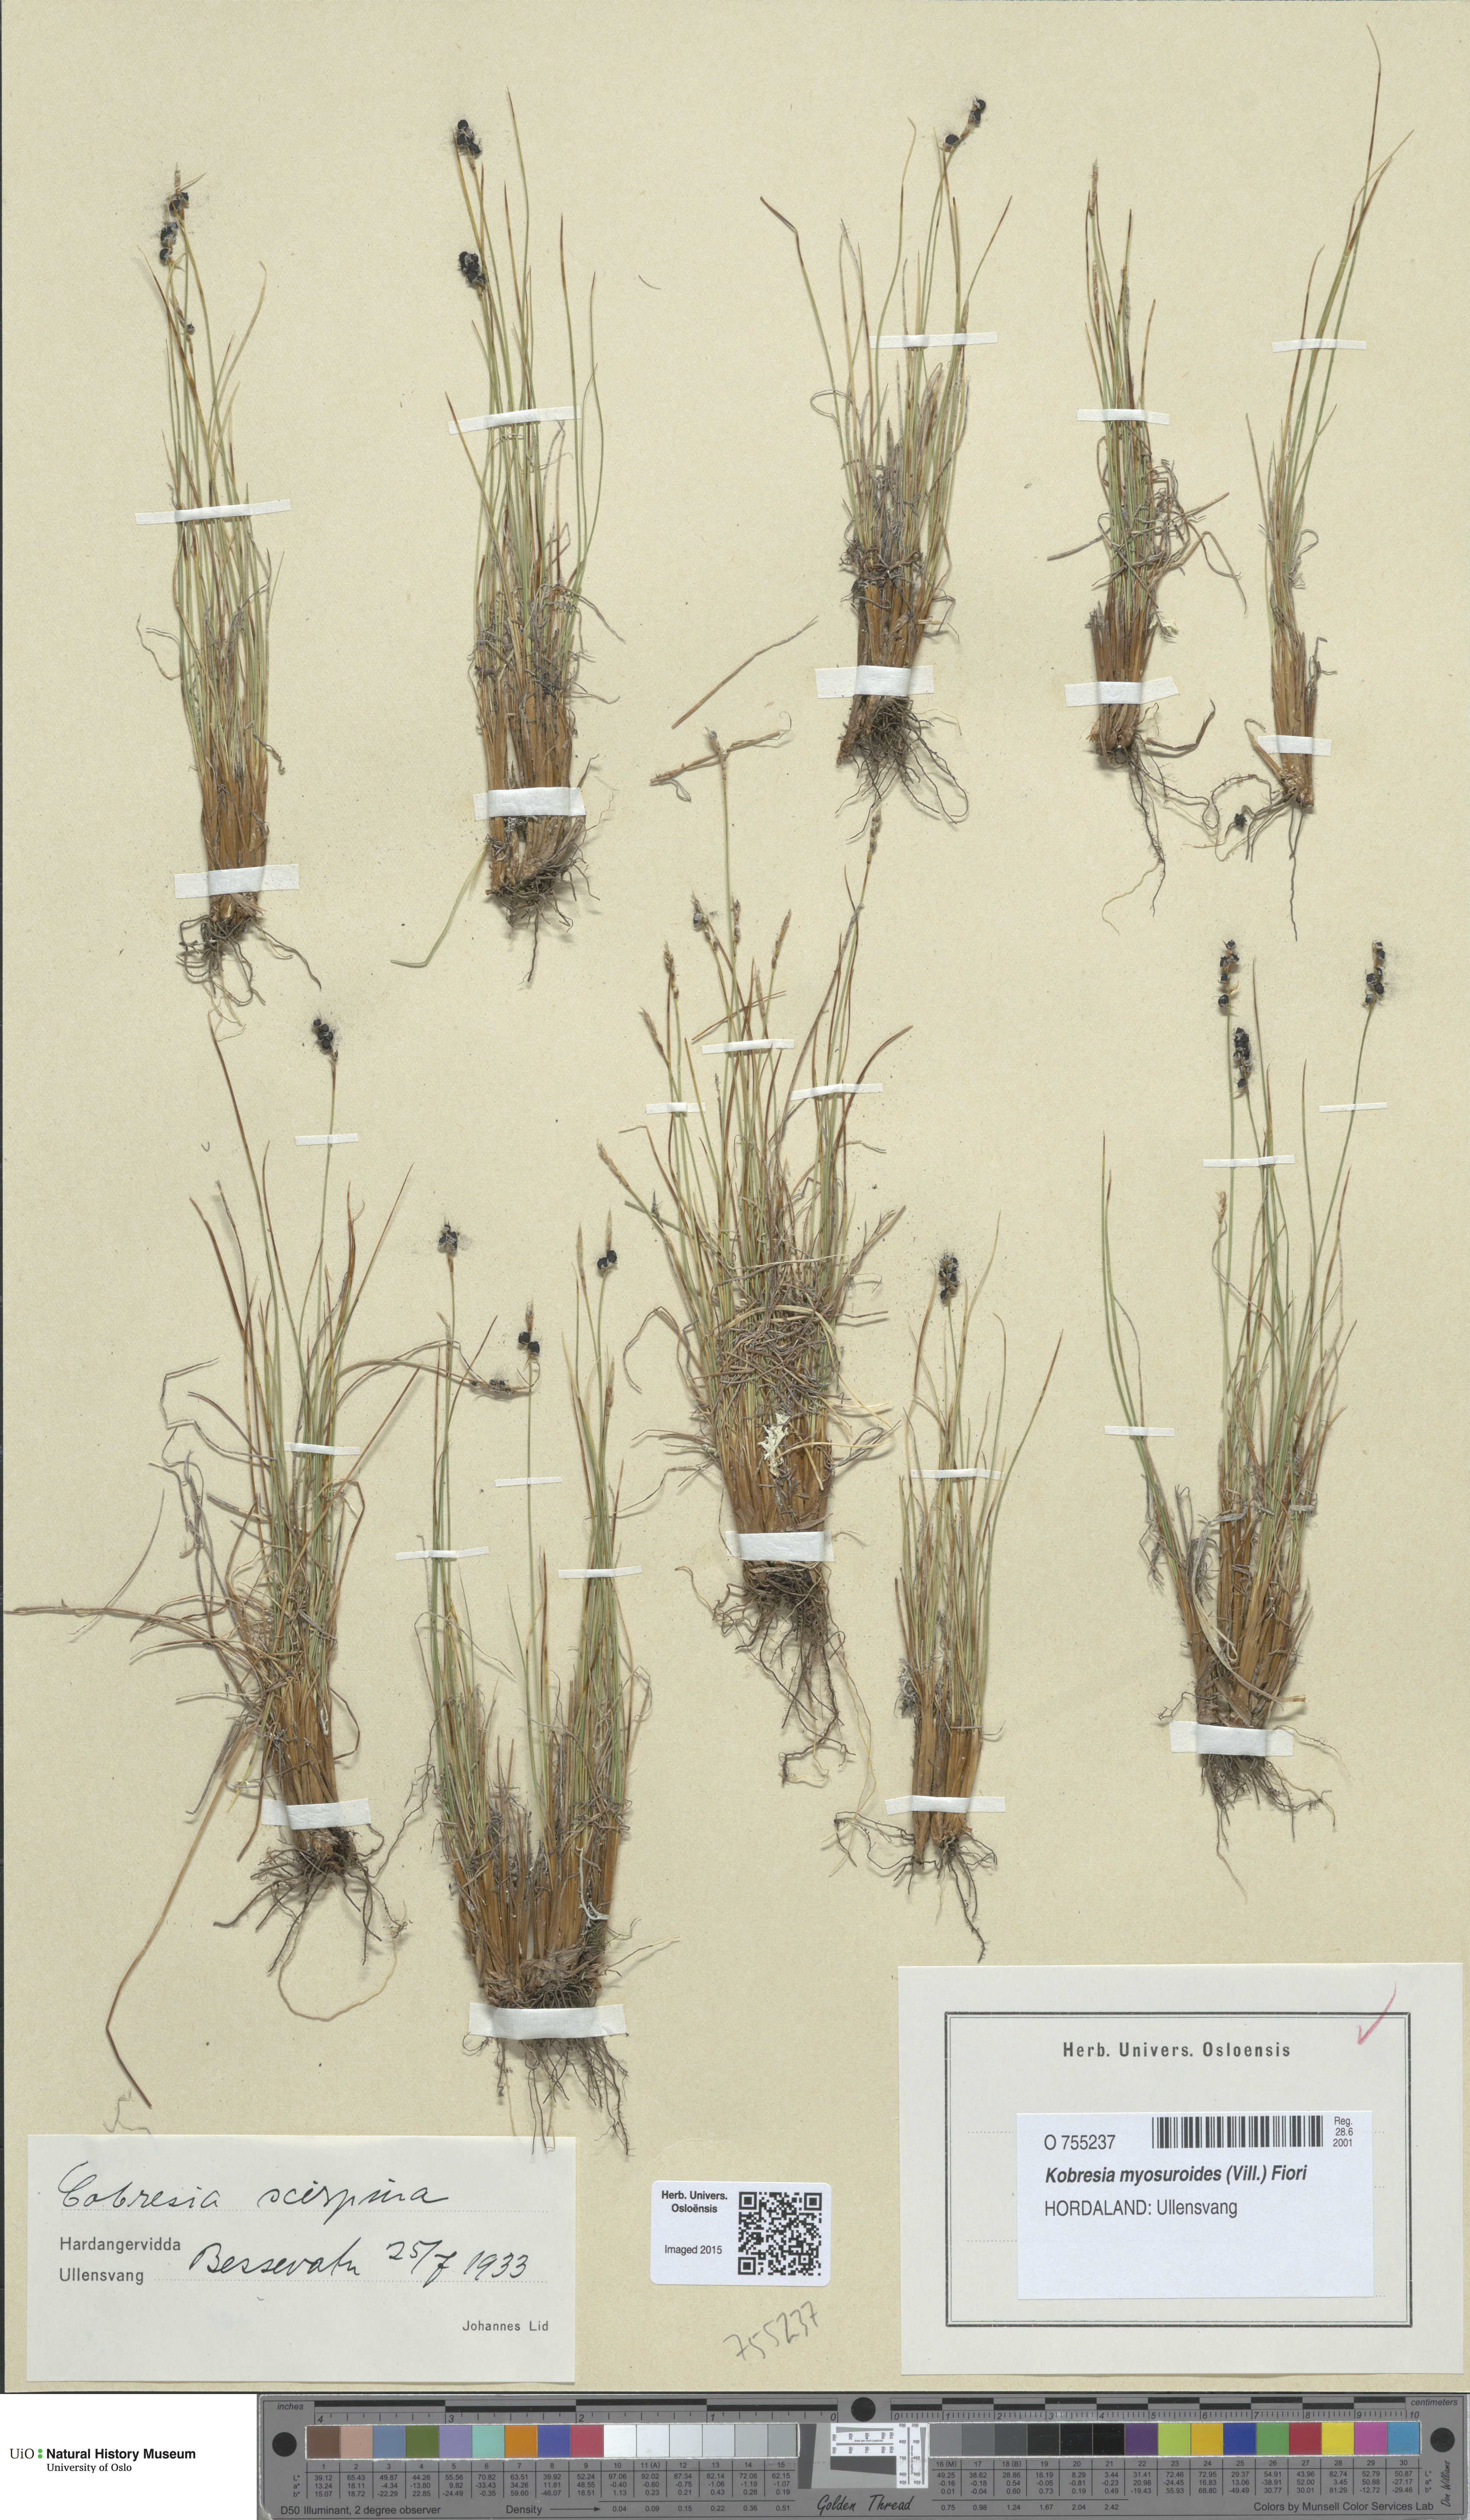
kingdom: Plantae
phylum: Tracheophyta
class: Liliopsida
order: Poales
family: Cyperaceae
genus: Carex
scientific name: Carex myosuroides
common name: Bellard's bog sedge
